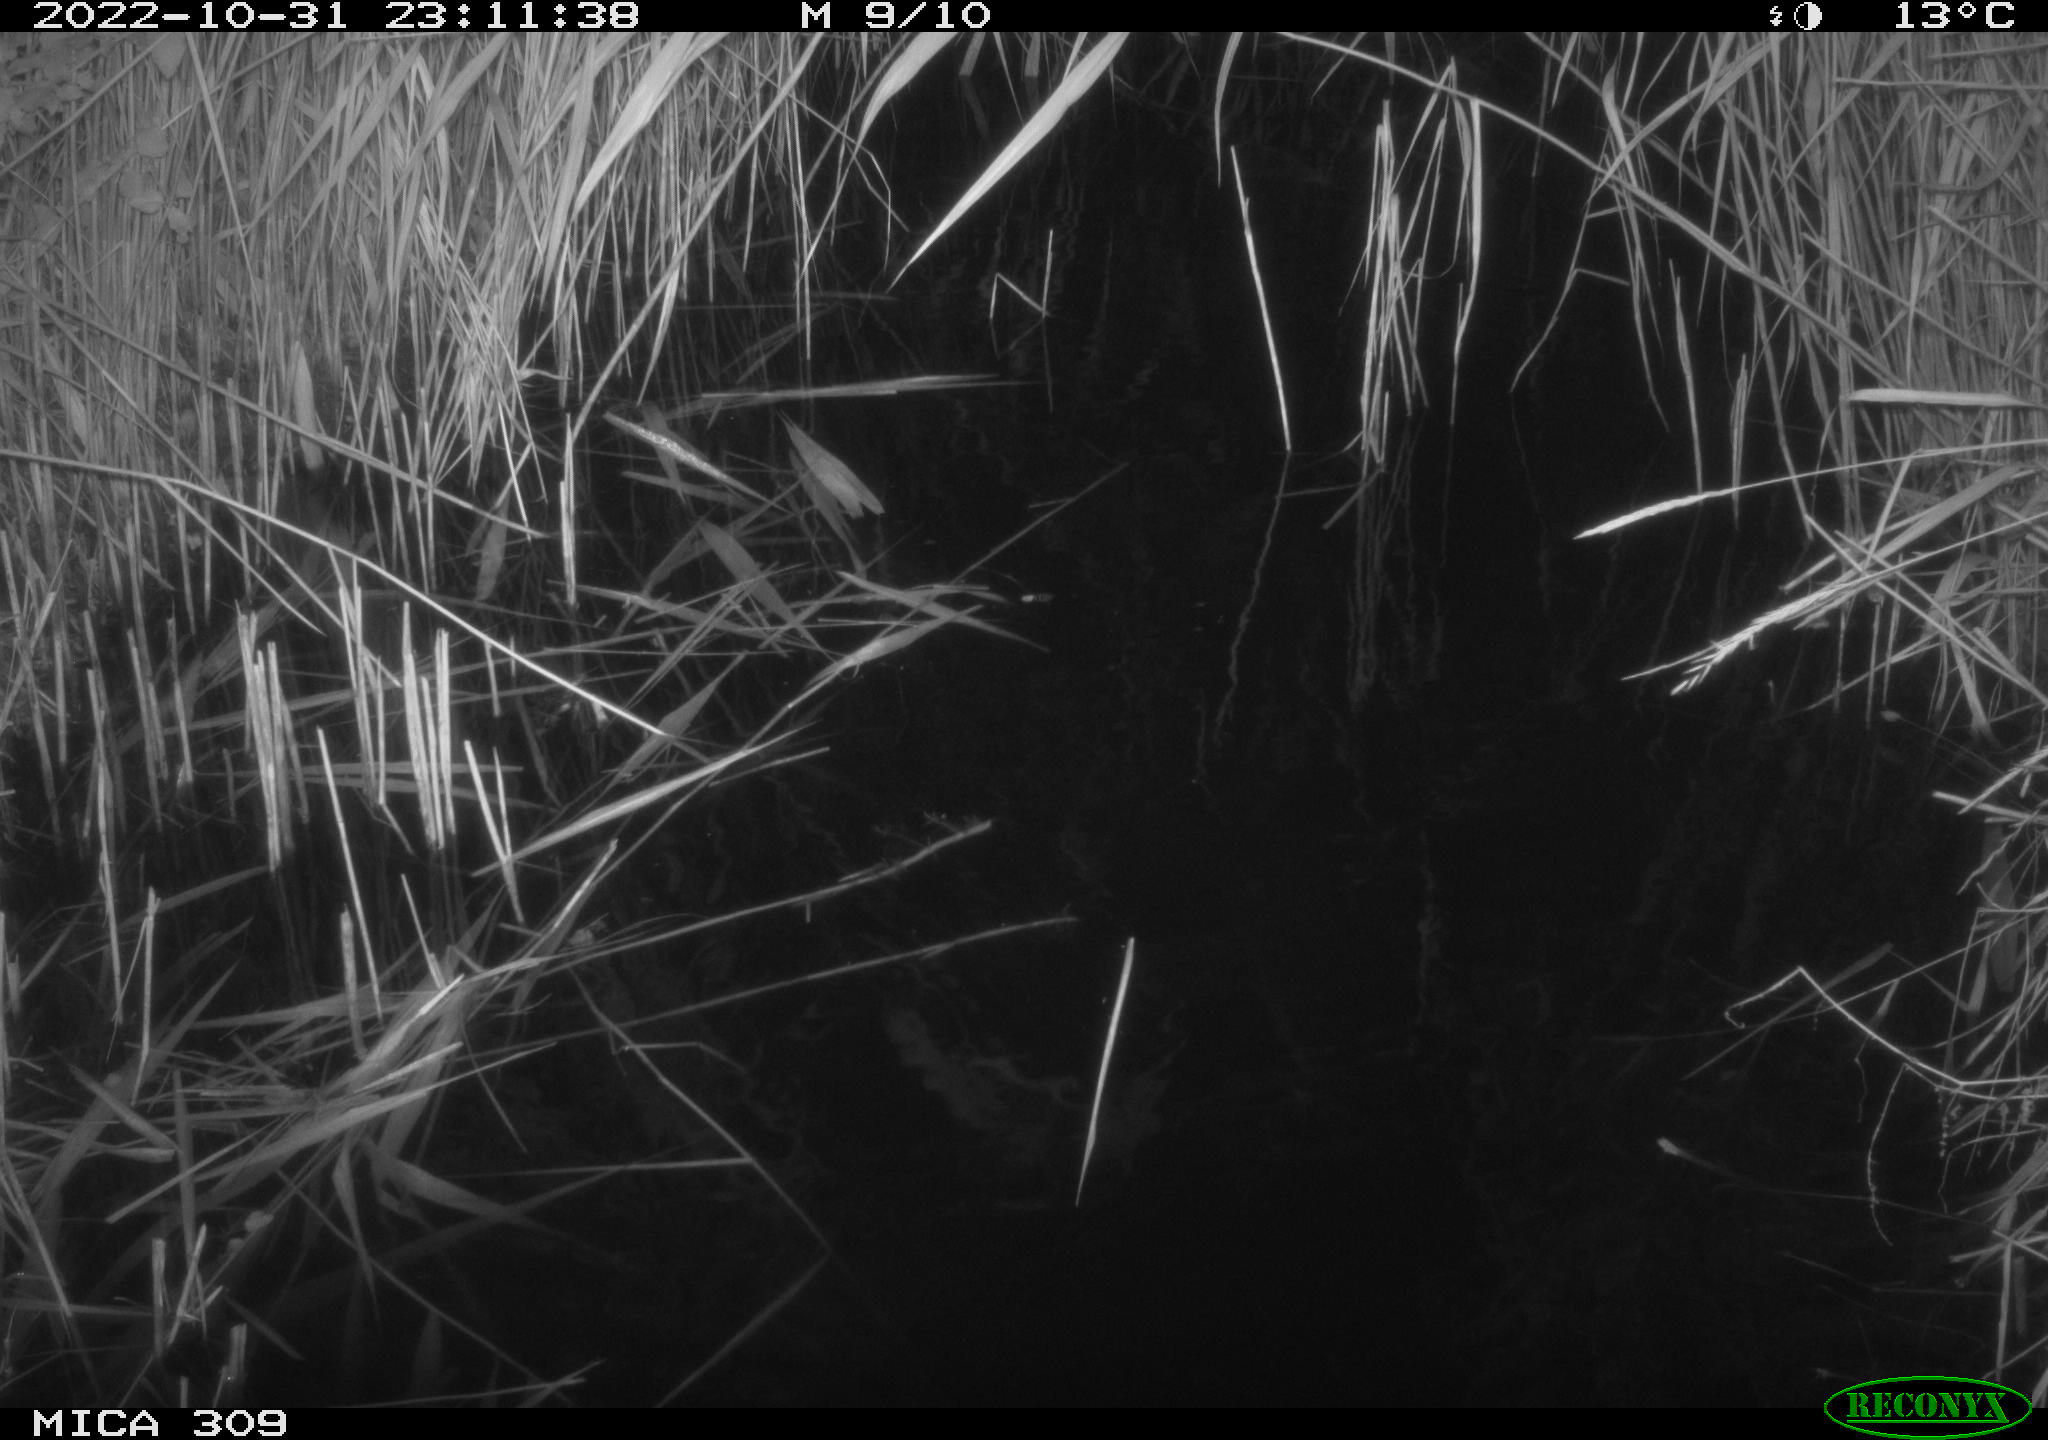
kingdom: Animalia
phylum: Chordata
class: Mammalia
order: Rodentia
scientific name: Rodentia
